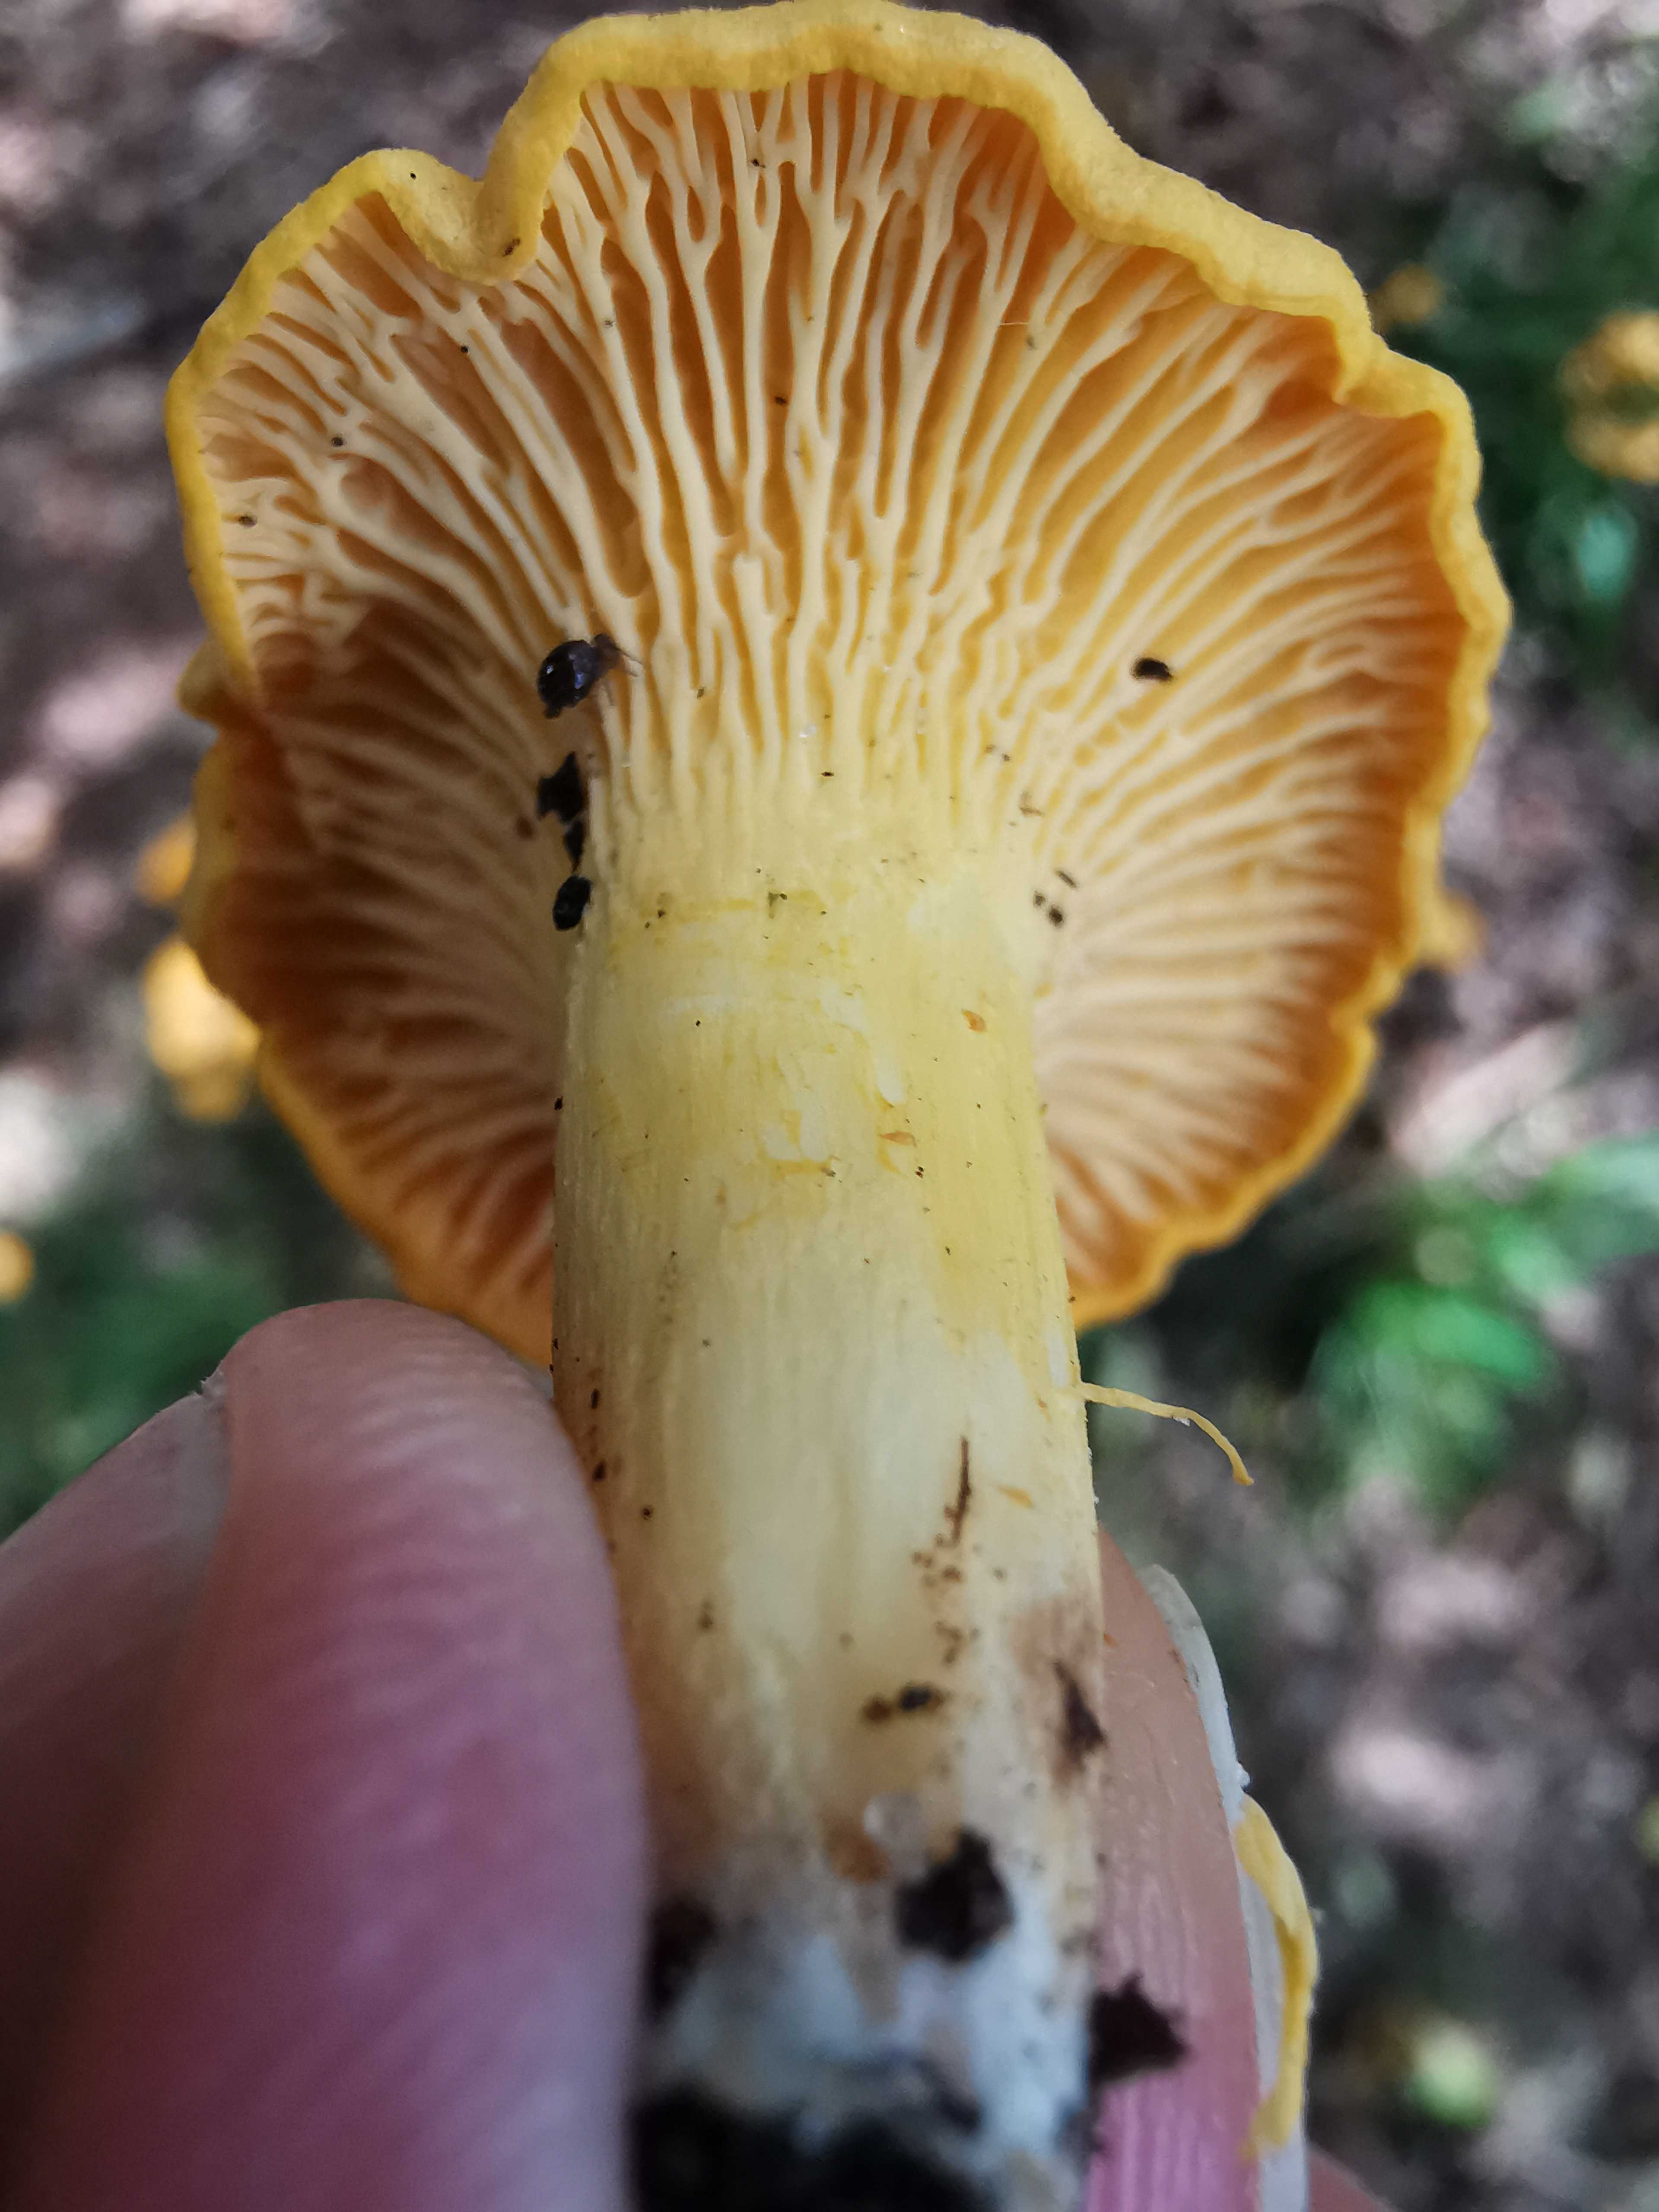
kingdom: Fungi
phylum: Basidiomycota
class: Agaricomycetes
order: Cantharellales
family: Hydnaceae
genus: Cantharellus
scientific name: Cantharellus cibarius
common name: almindelig kantarel
